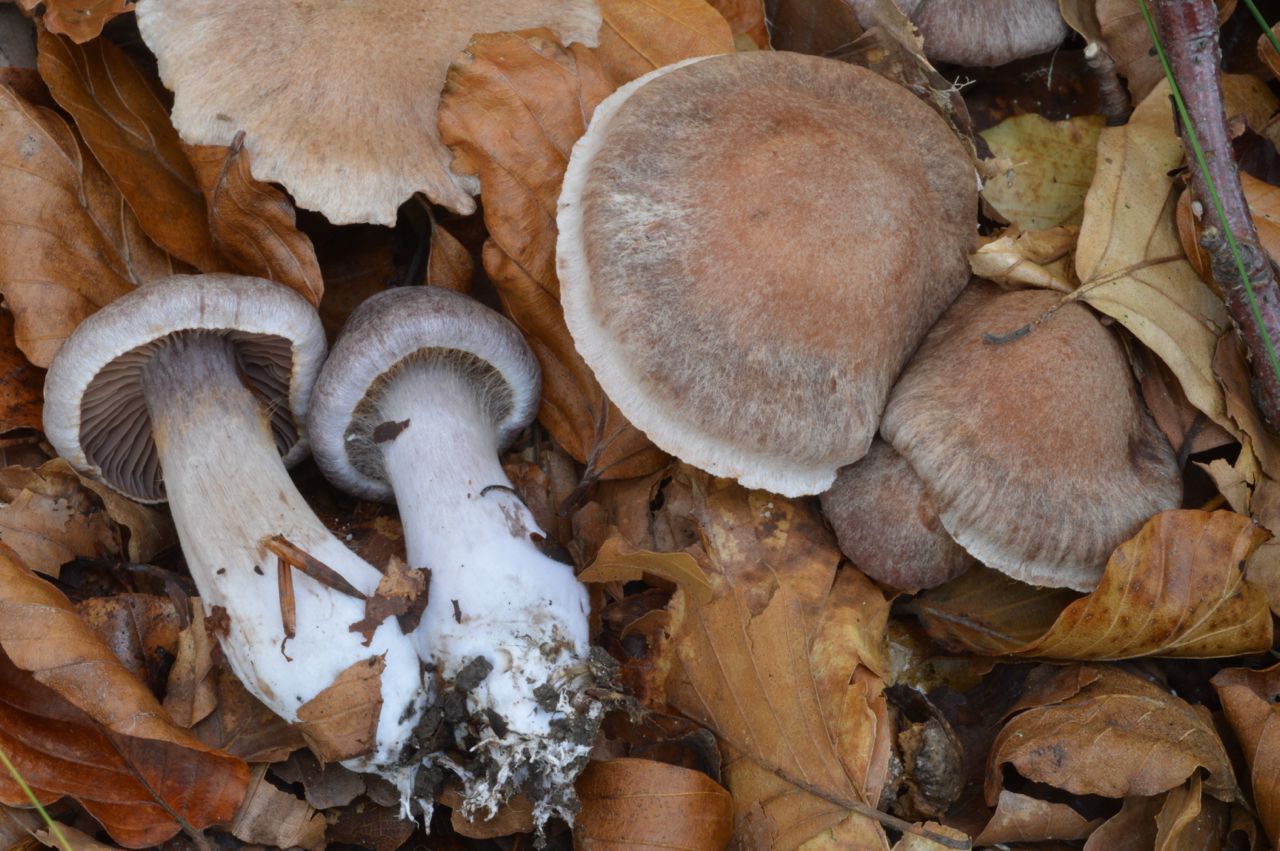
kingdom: Fungi
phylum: Basidiomycota
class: Agaricomycetes
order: Agaricales
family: Cortinariaceae
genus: Cortinarius
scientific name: Cortinarius testaceomicaceus
